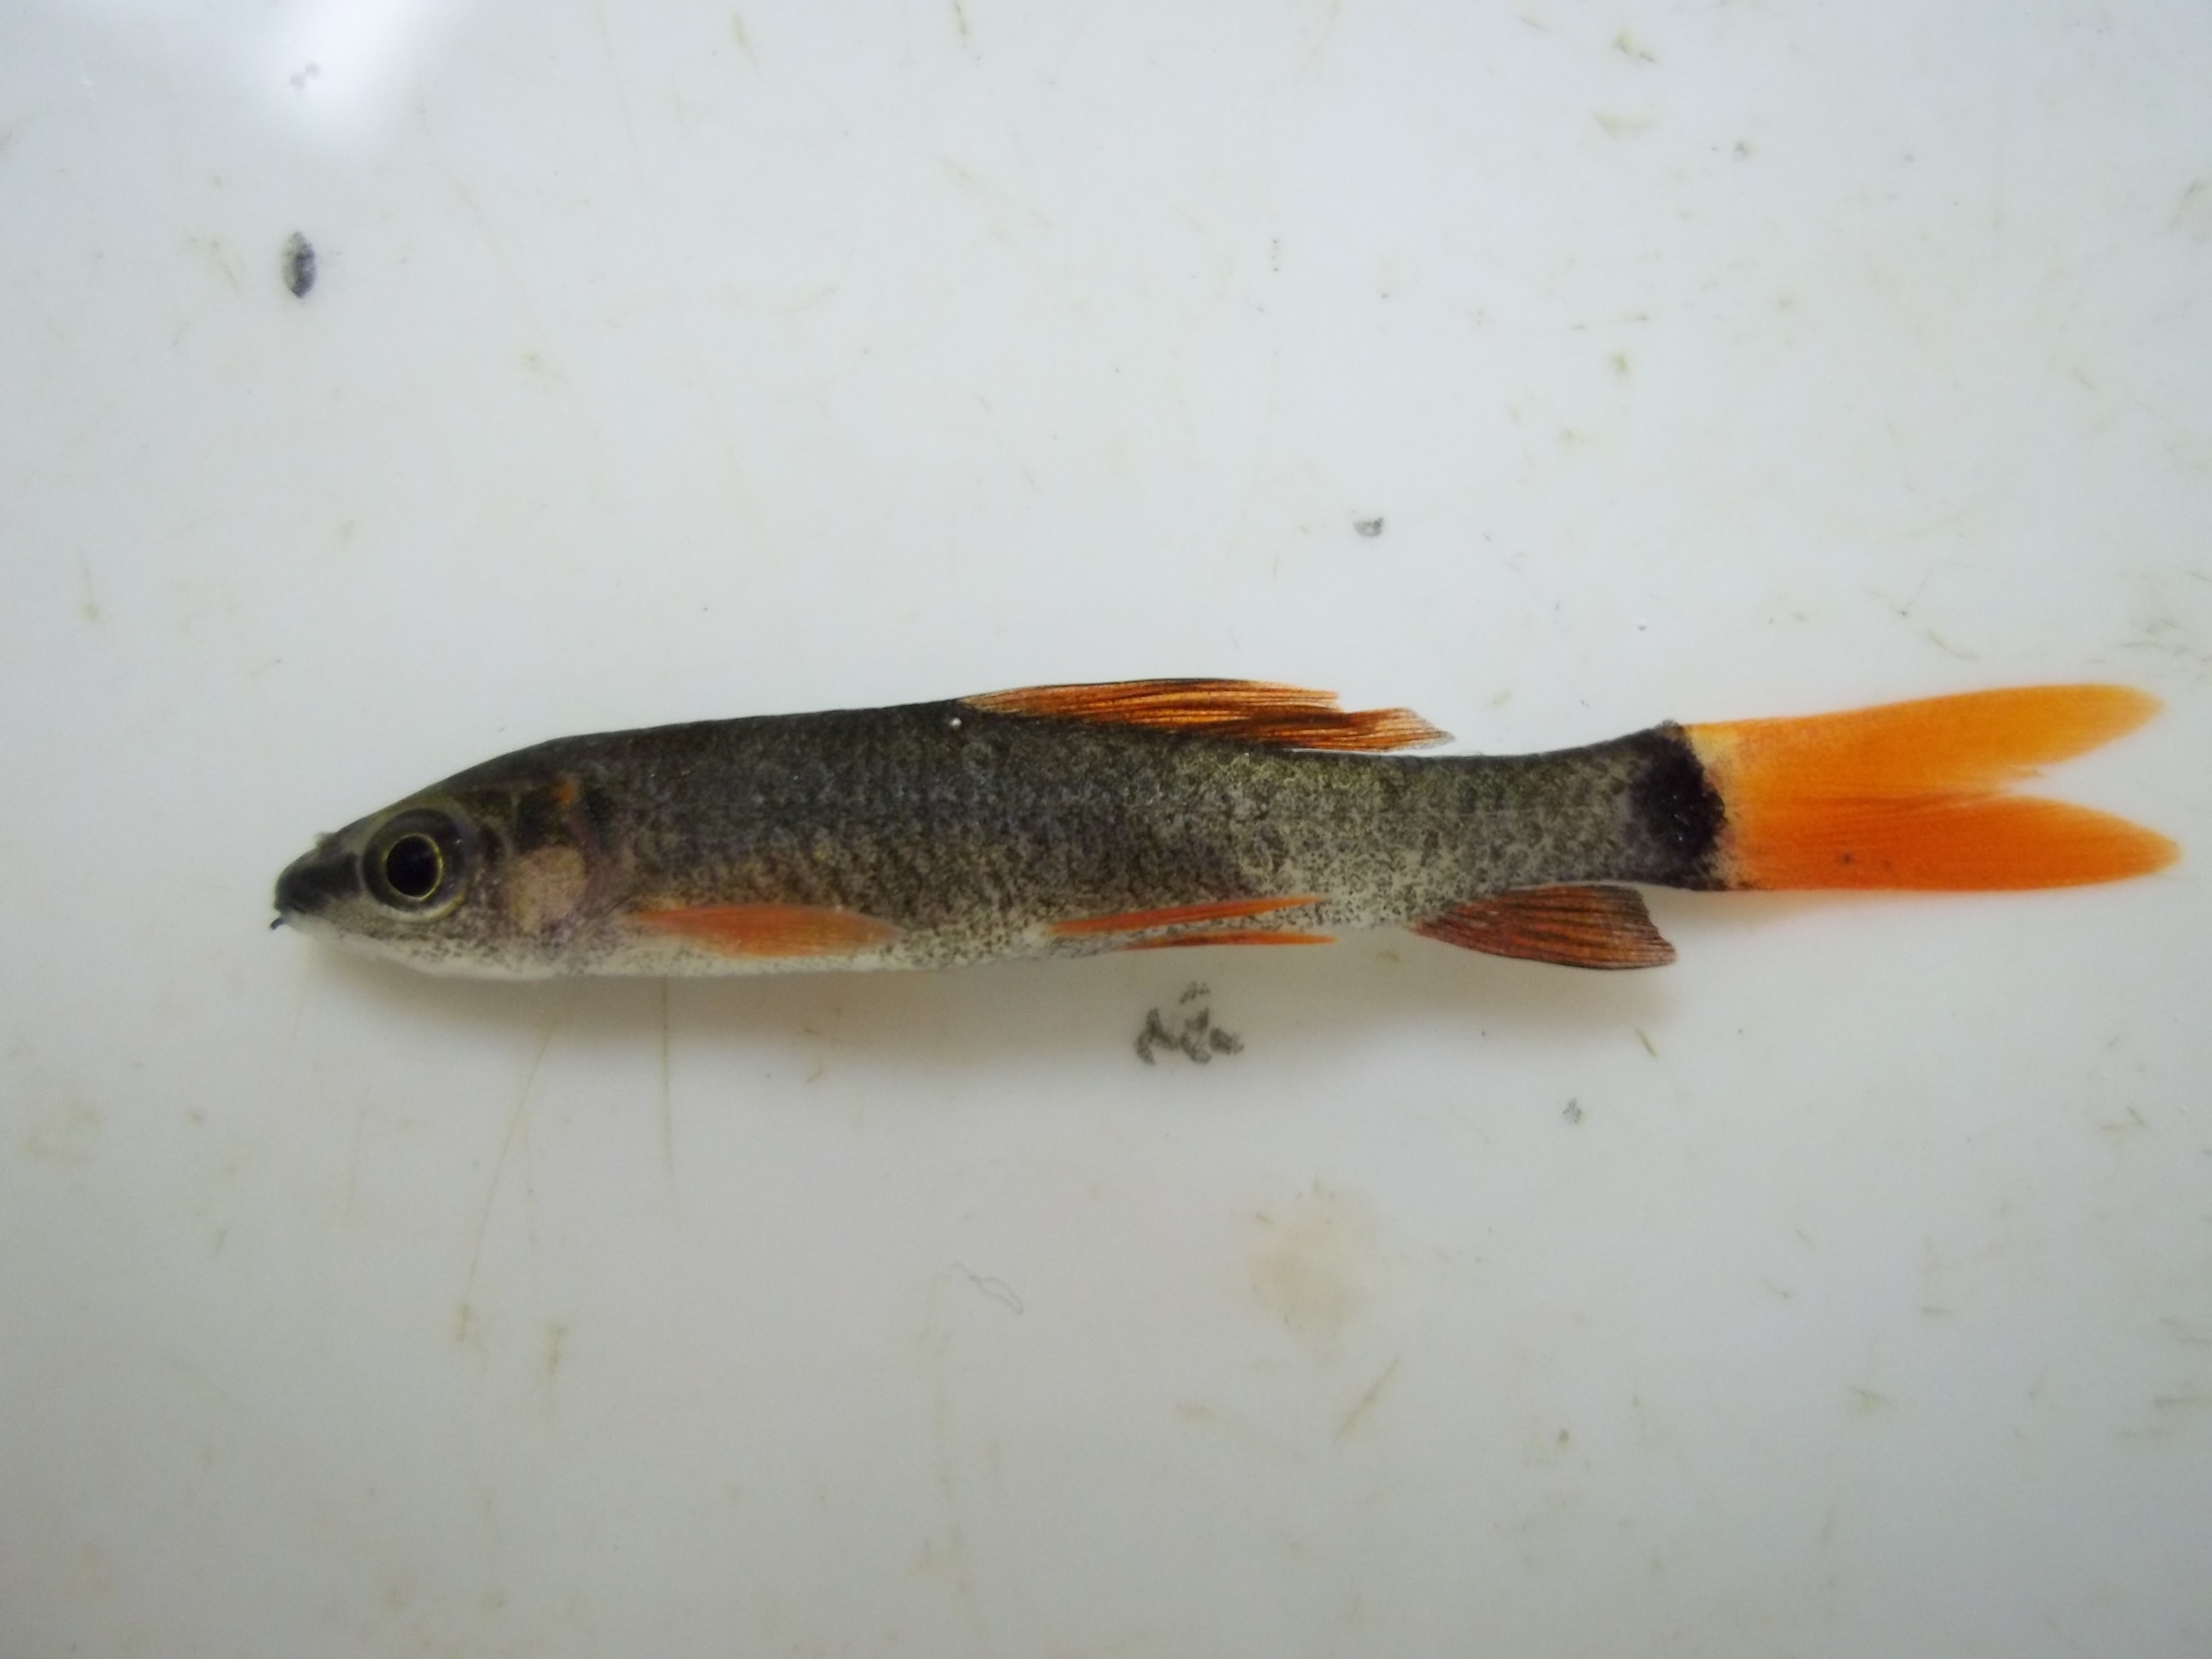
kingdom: Animalia
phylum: Chordata
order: Cypriniformes
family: Cyprinidae
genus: Epalzeorhynchos
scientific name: Epalzeorhynchos frenatus
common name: Rainbow shark
